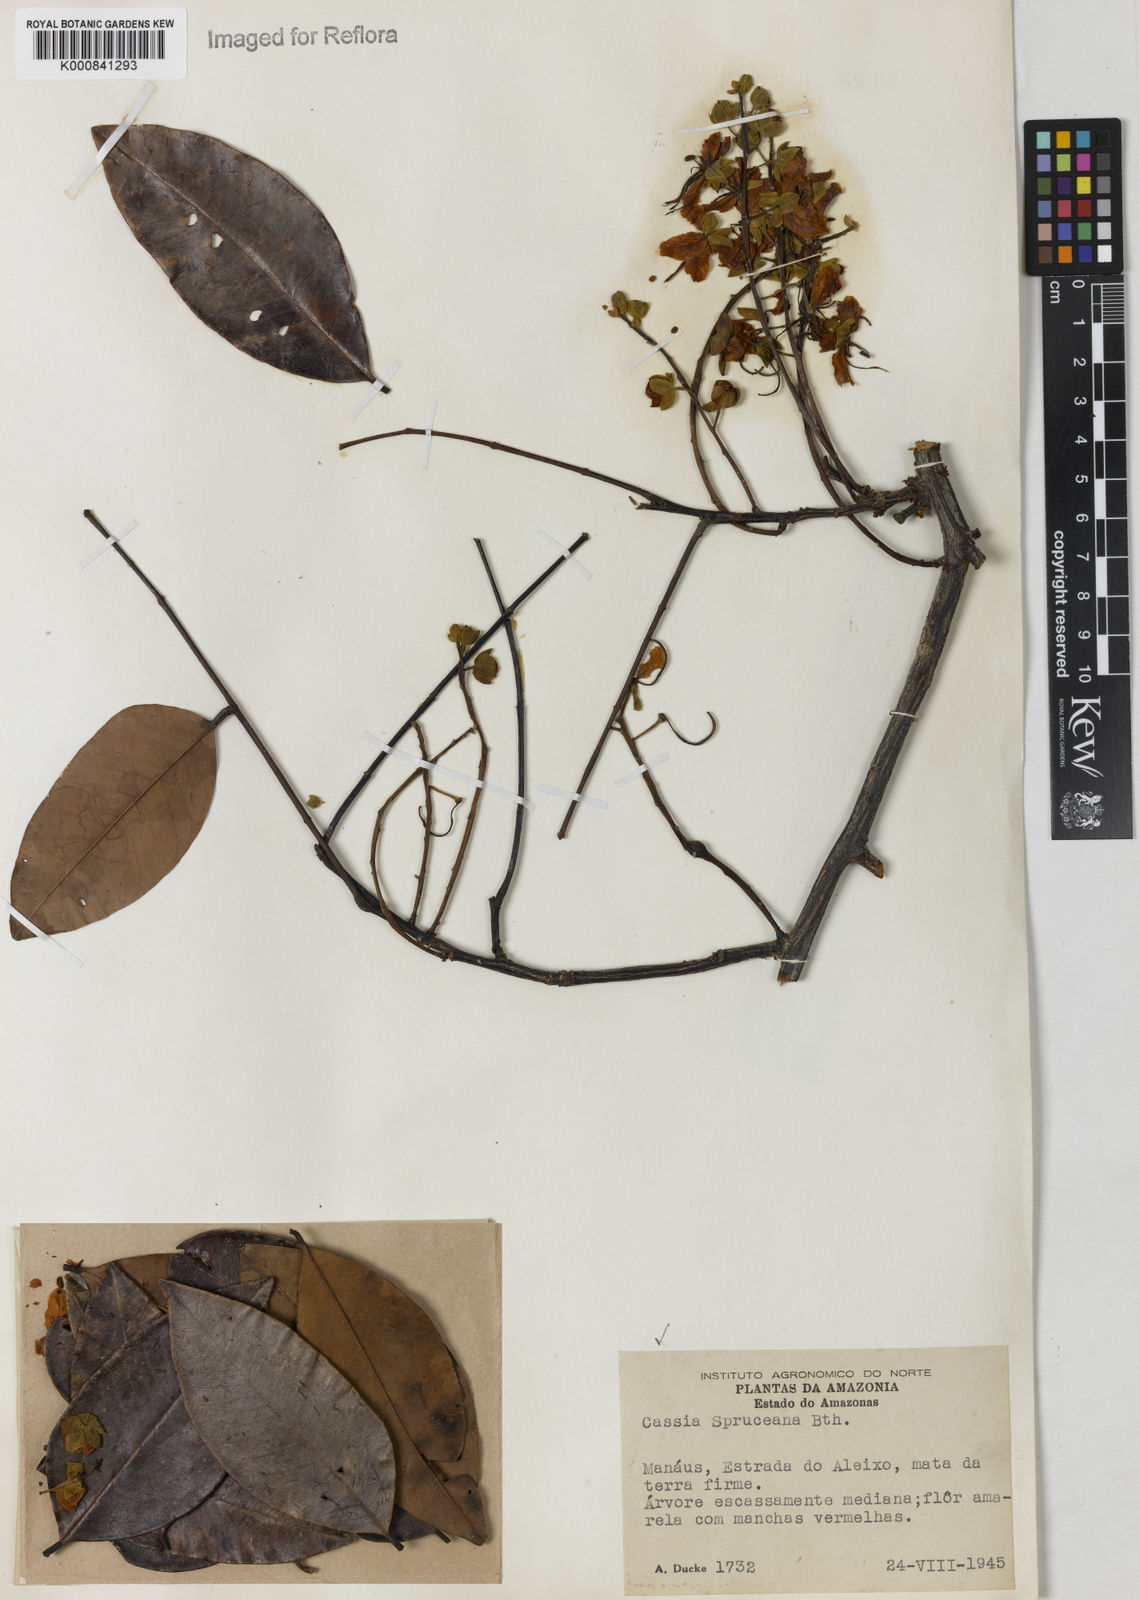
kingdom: Plantae
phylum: Tracheophyta
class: Magnoliopsida
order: Fabales
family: Fabaceae
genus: Cassia
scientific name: Cassia leiandra
